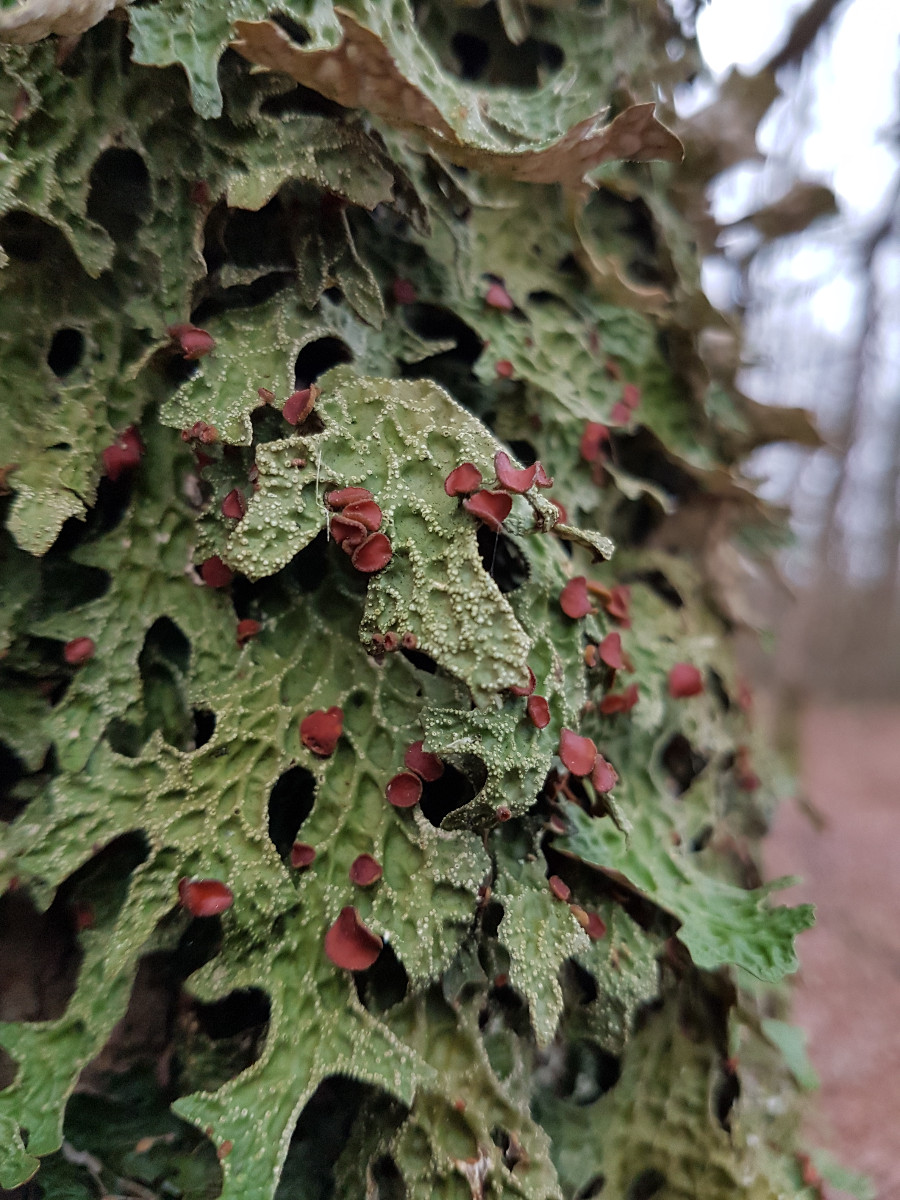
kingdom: Fungi
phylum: Ascomycota
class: Lecanoromycetes
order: Peltigerales
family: Lobariaceae
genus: Lobaria
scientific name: Lobaria pulmonaria
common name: almindelig lungelav
